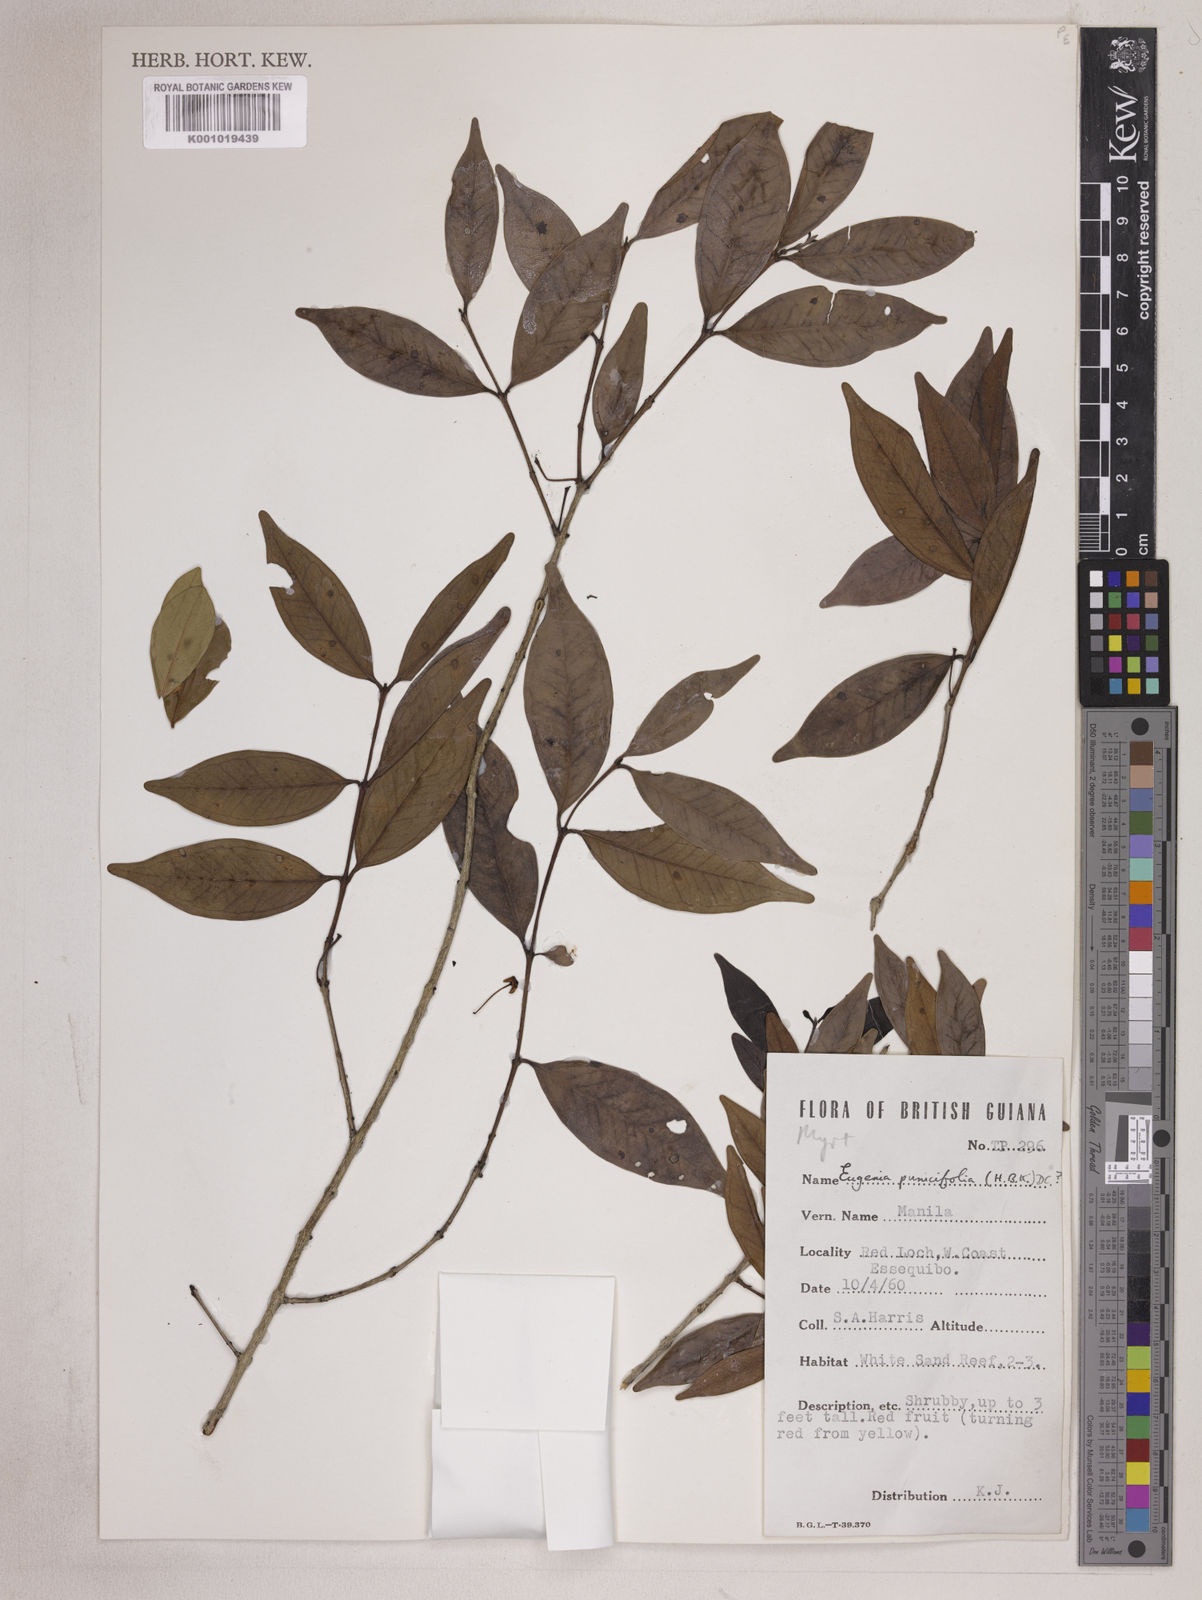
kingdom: Plantae
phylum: Tracheophyta
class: Magnoliopsida
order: Myrtales
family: Myrtaceae
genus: Eugenia
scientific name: Eugenia punicifolia
